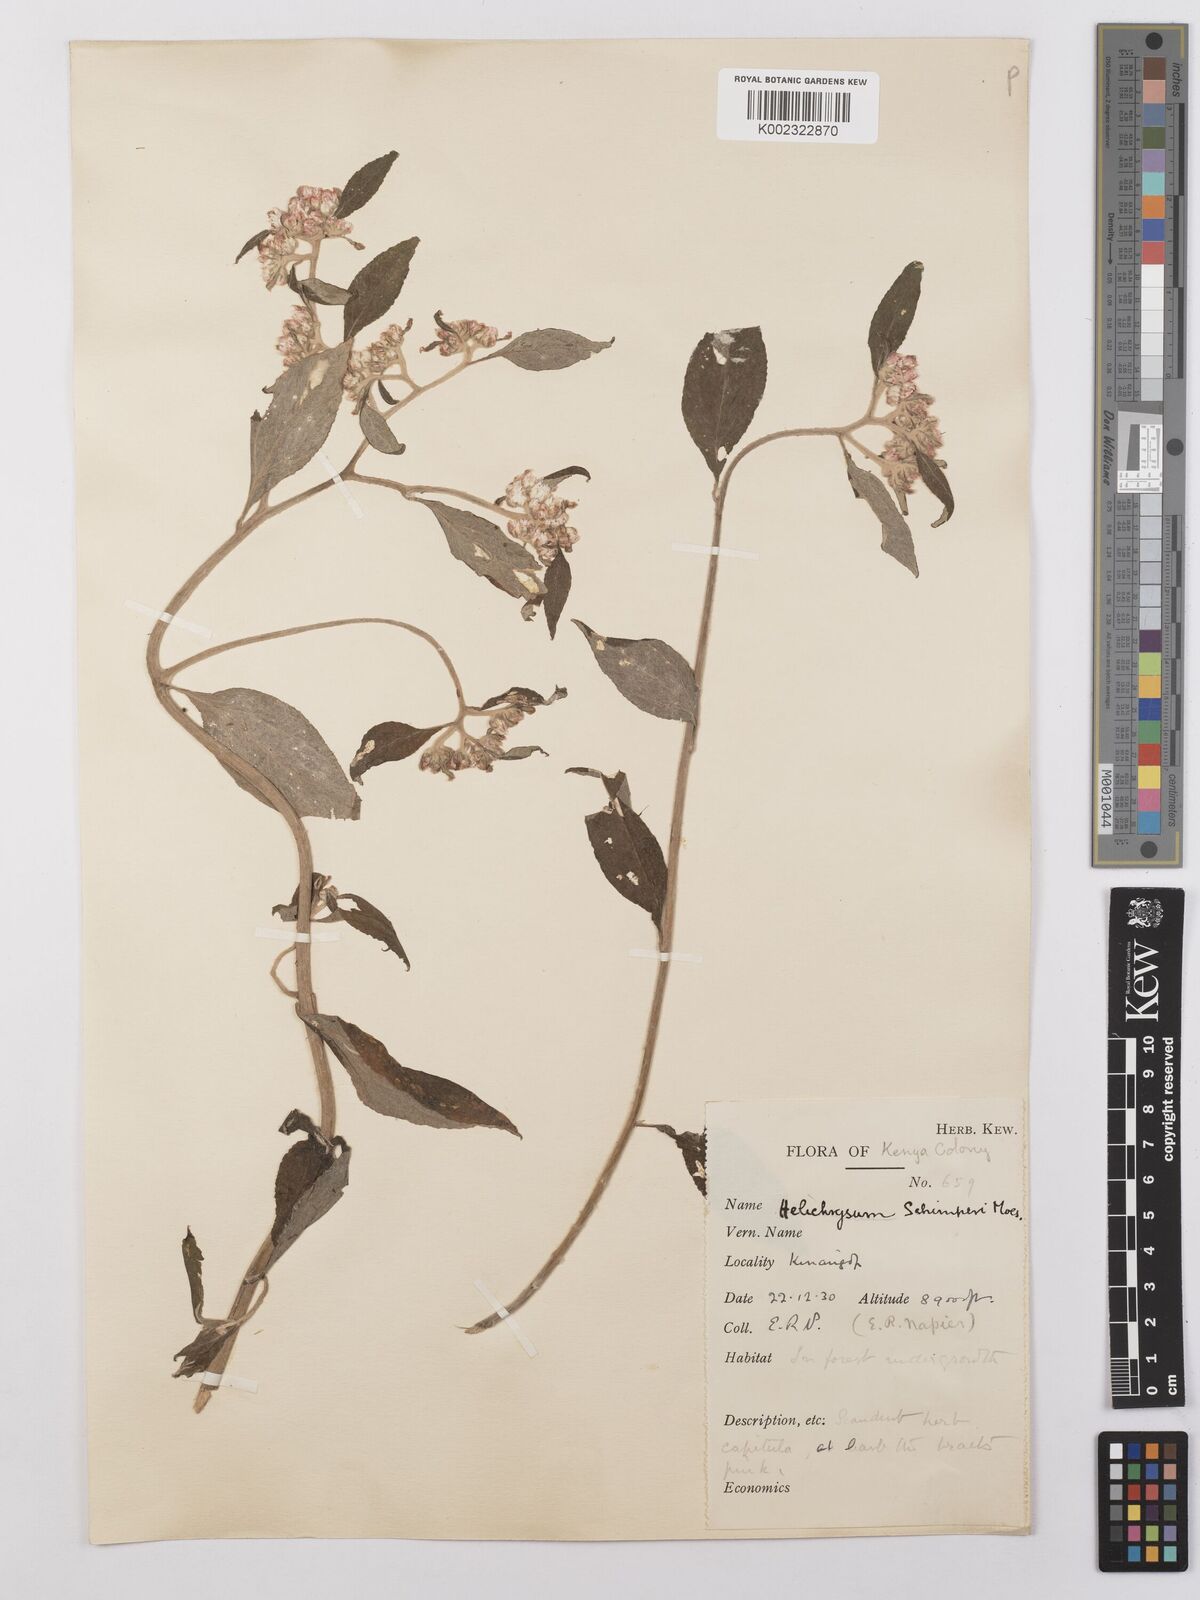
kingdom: Plantae
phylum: Tracheophyta
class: Magnoliopsida
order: Asterales
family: Asteraceae
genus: Helichrysum
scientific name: Helichrysum schimperi
